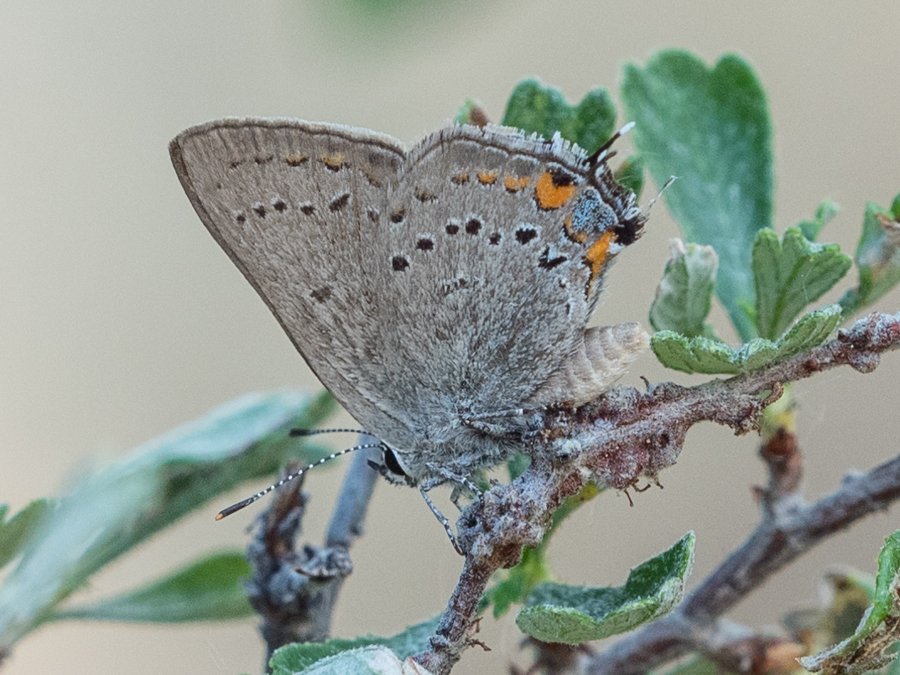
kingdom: Animalia
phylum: Arthropoda
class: Insecta
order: Lepidoptera
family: Lycaenidae
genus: Strymon
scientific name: Strymon acadica
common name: California Hairstreak
